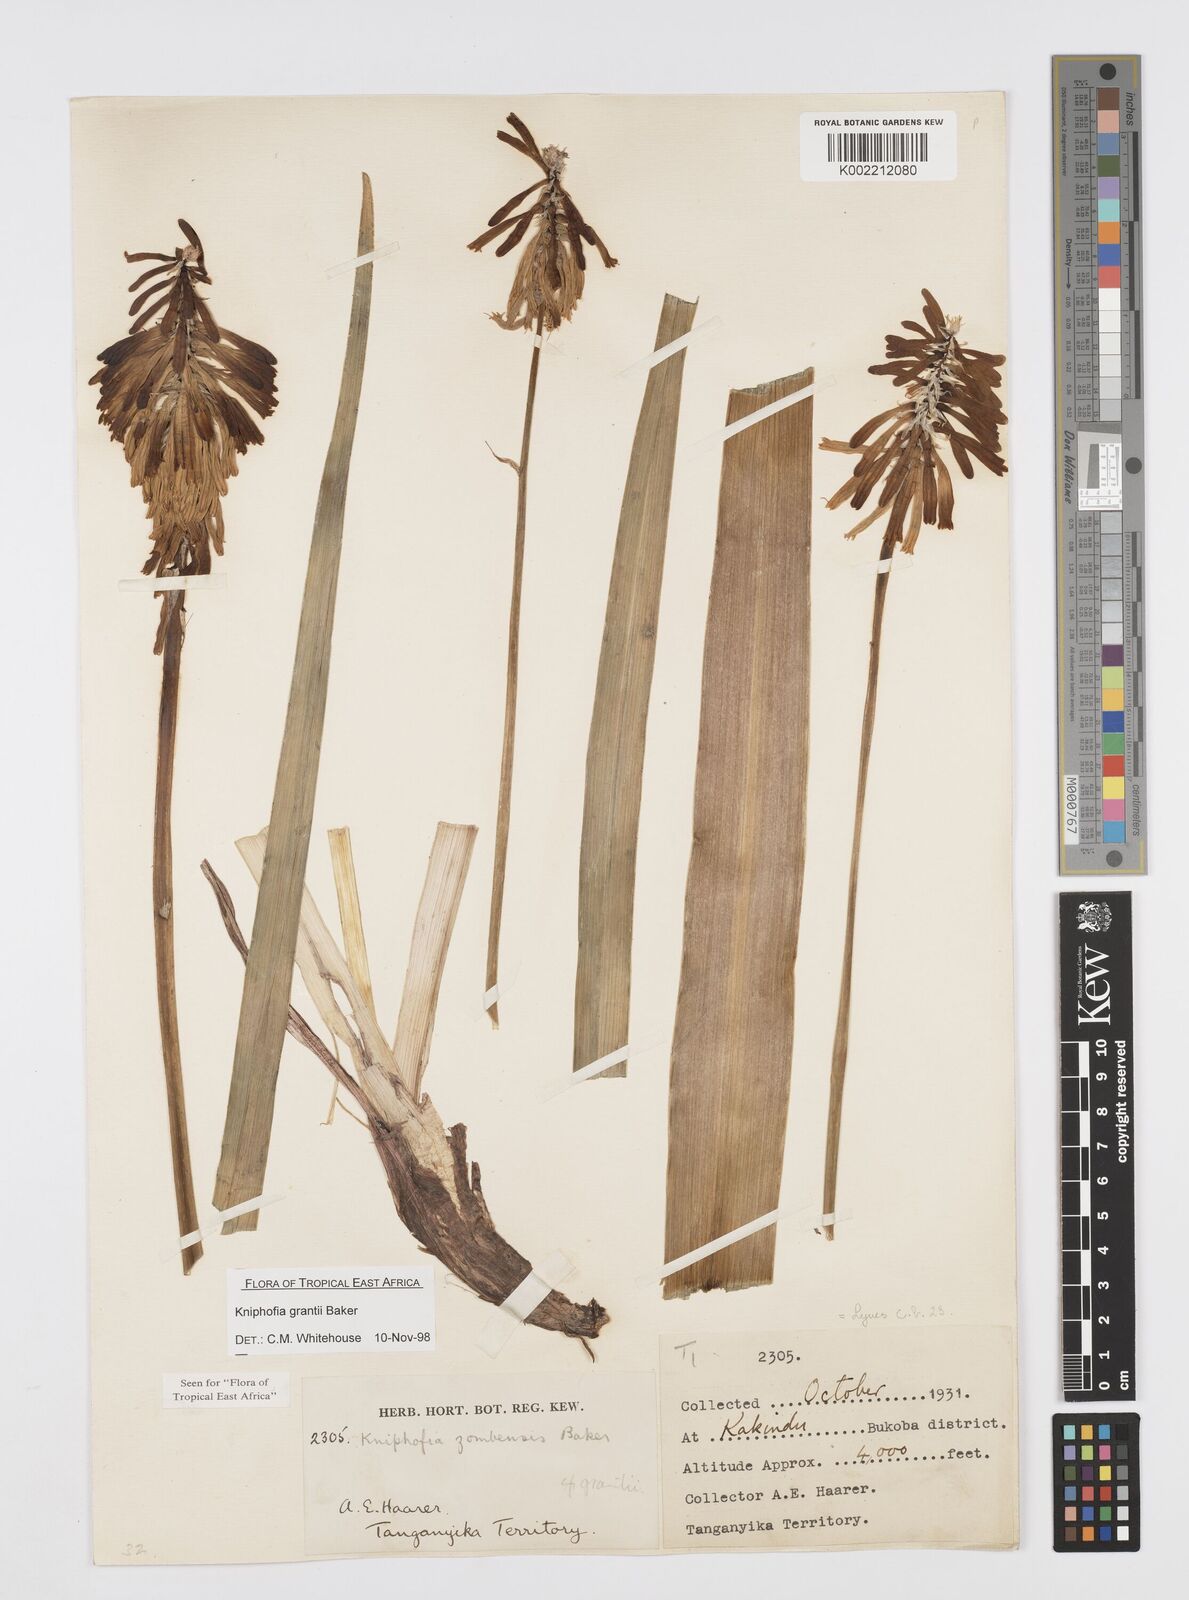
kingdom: Plantae
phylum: Tracheophyta
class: Liliopsida
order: Asparagales
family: Asphodelaceae
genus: Kniphofia
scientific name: Kniphofia grantii
